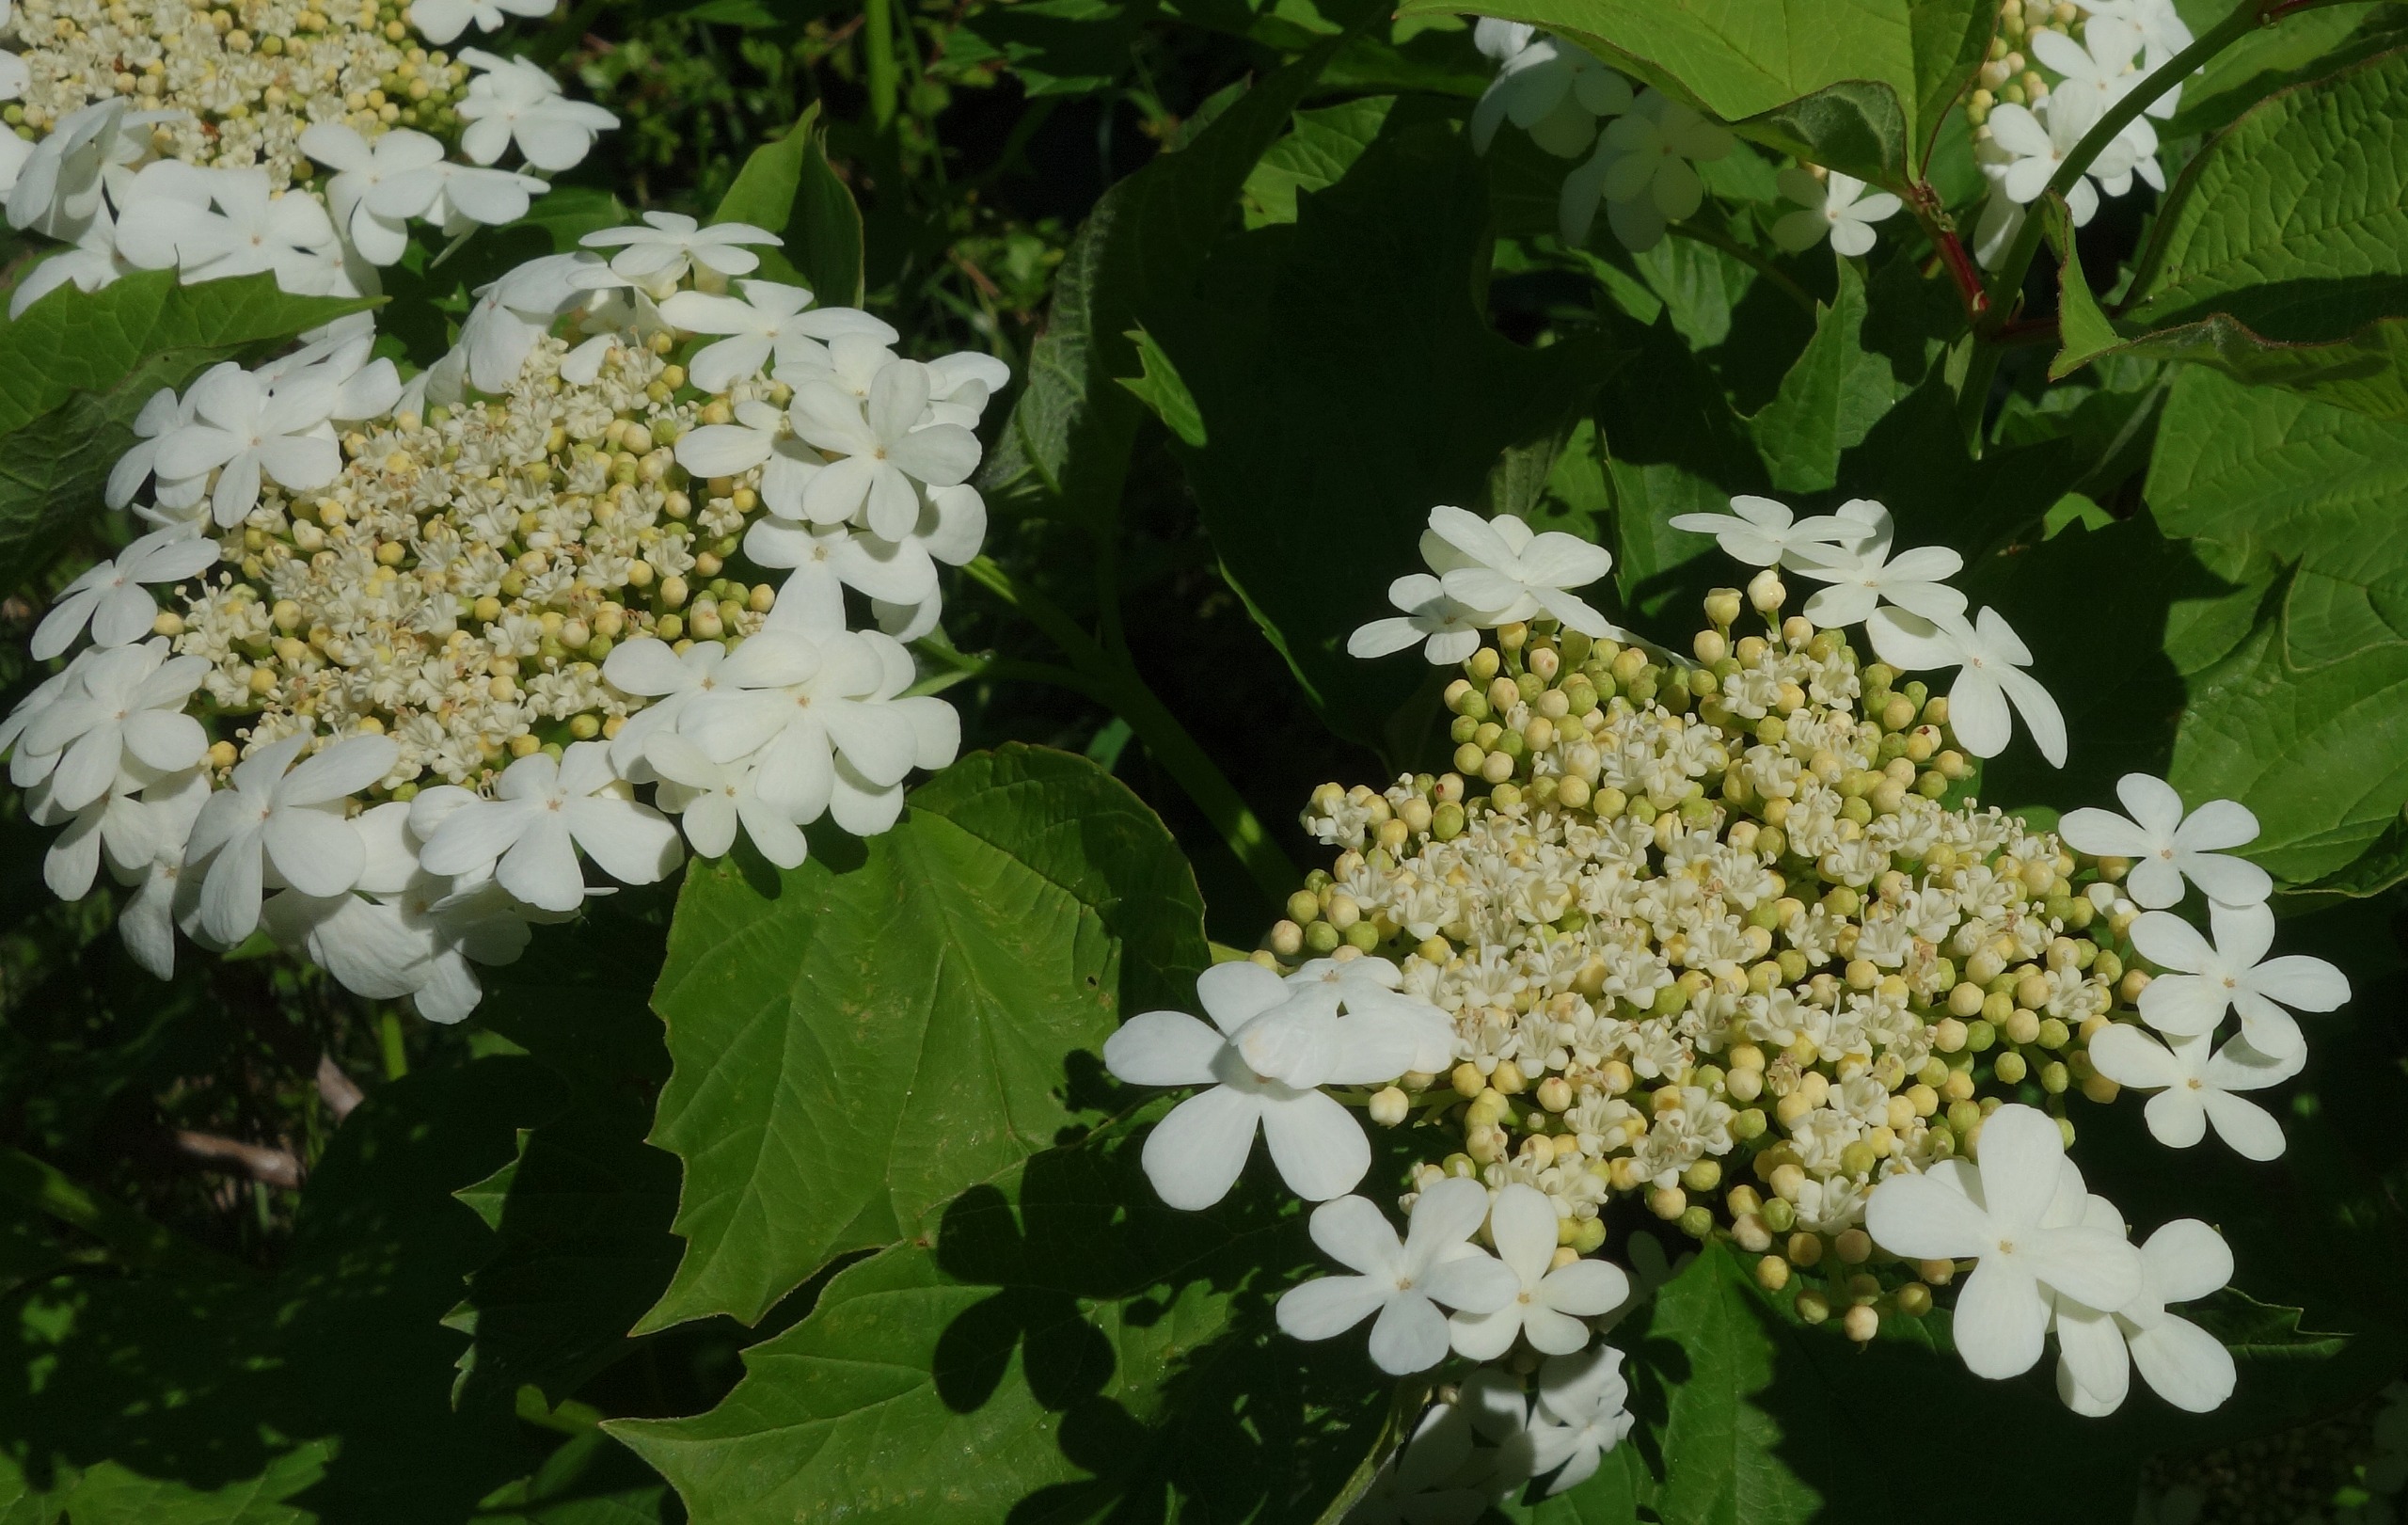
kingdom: Plantae
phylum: Tracheophyta
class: Magnoliopsida
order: Dipsacales
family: Viburnaceae
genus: Viburnum
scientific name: Viburnum opulus
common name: Kvalkved
